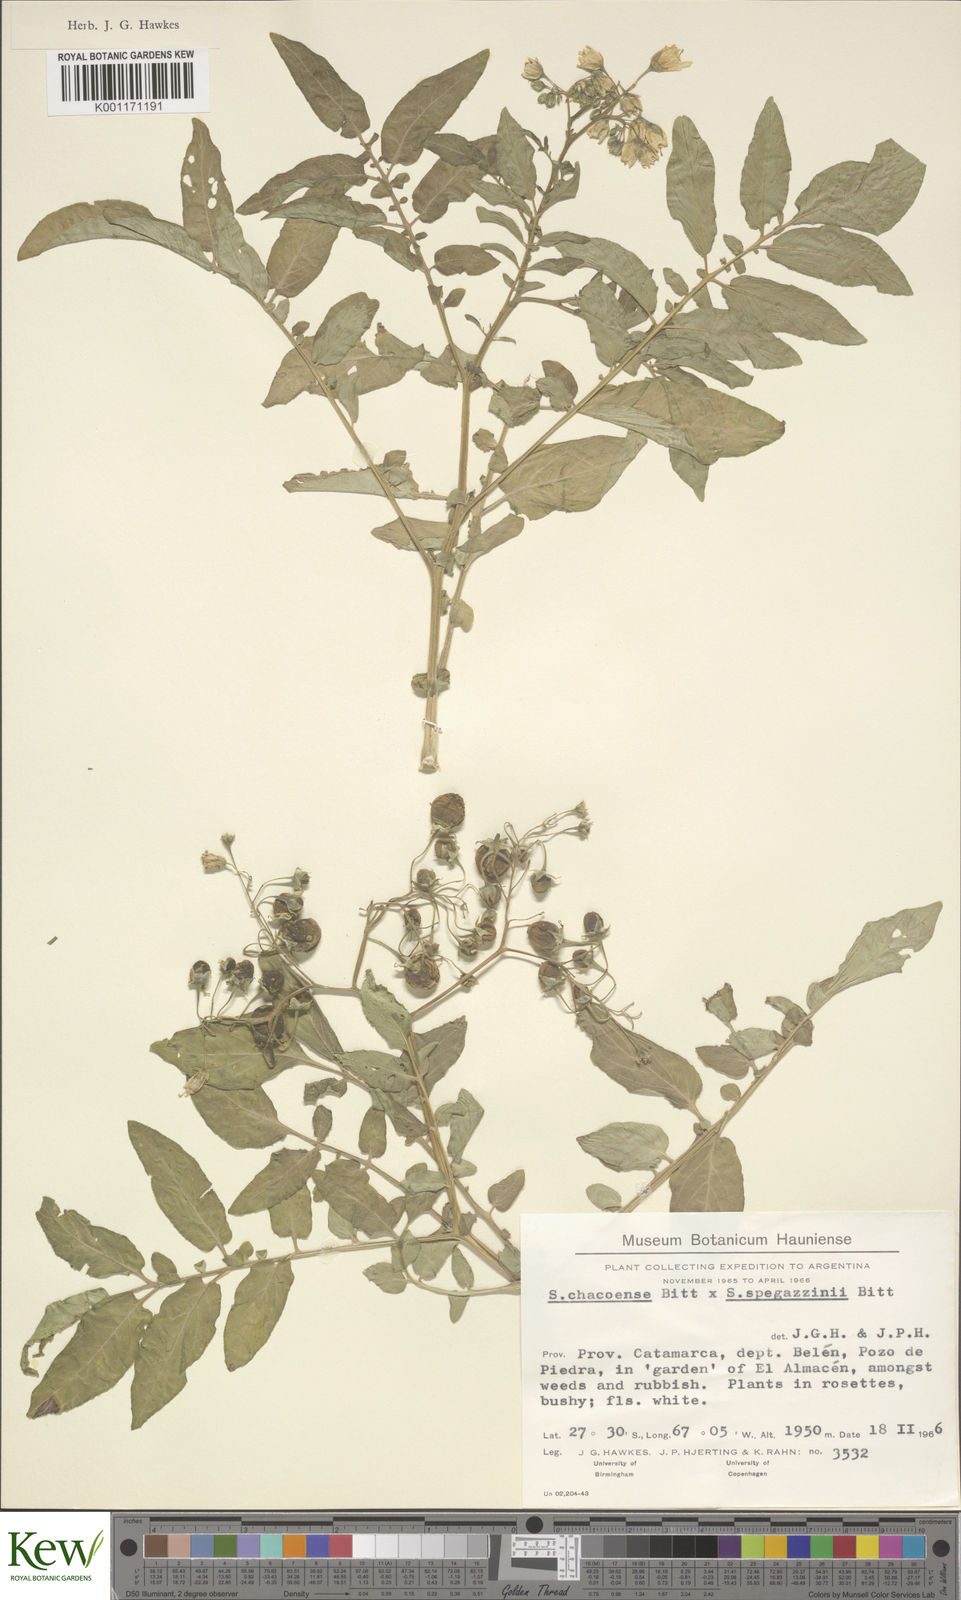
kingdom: Plantae
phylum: Tracheophyta
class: Magnoliopsida
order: Solanales
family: Solanaceae
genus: Solanum
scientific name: Solanum chacoense
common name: Chaco potato
